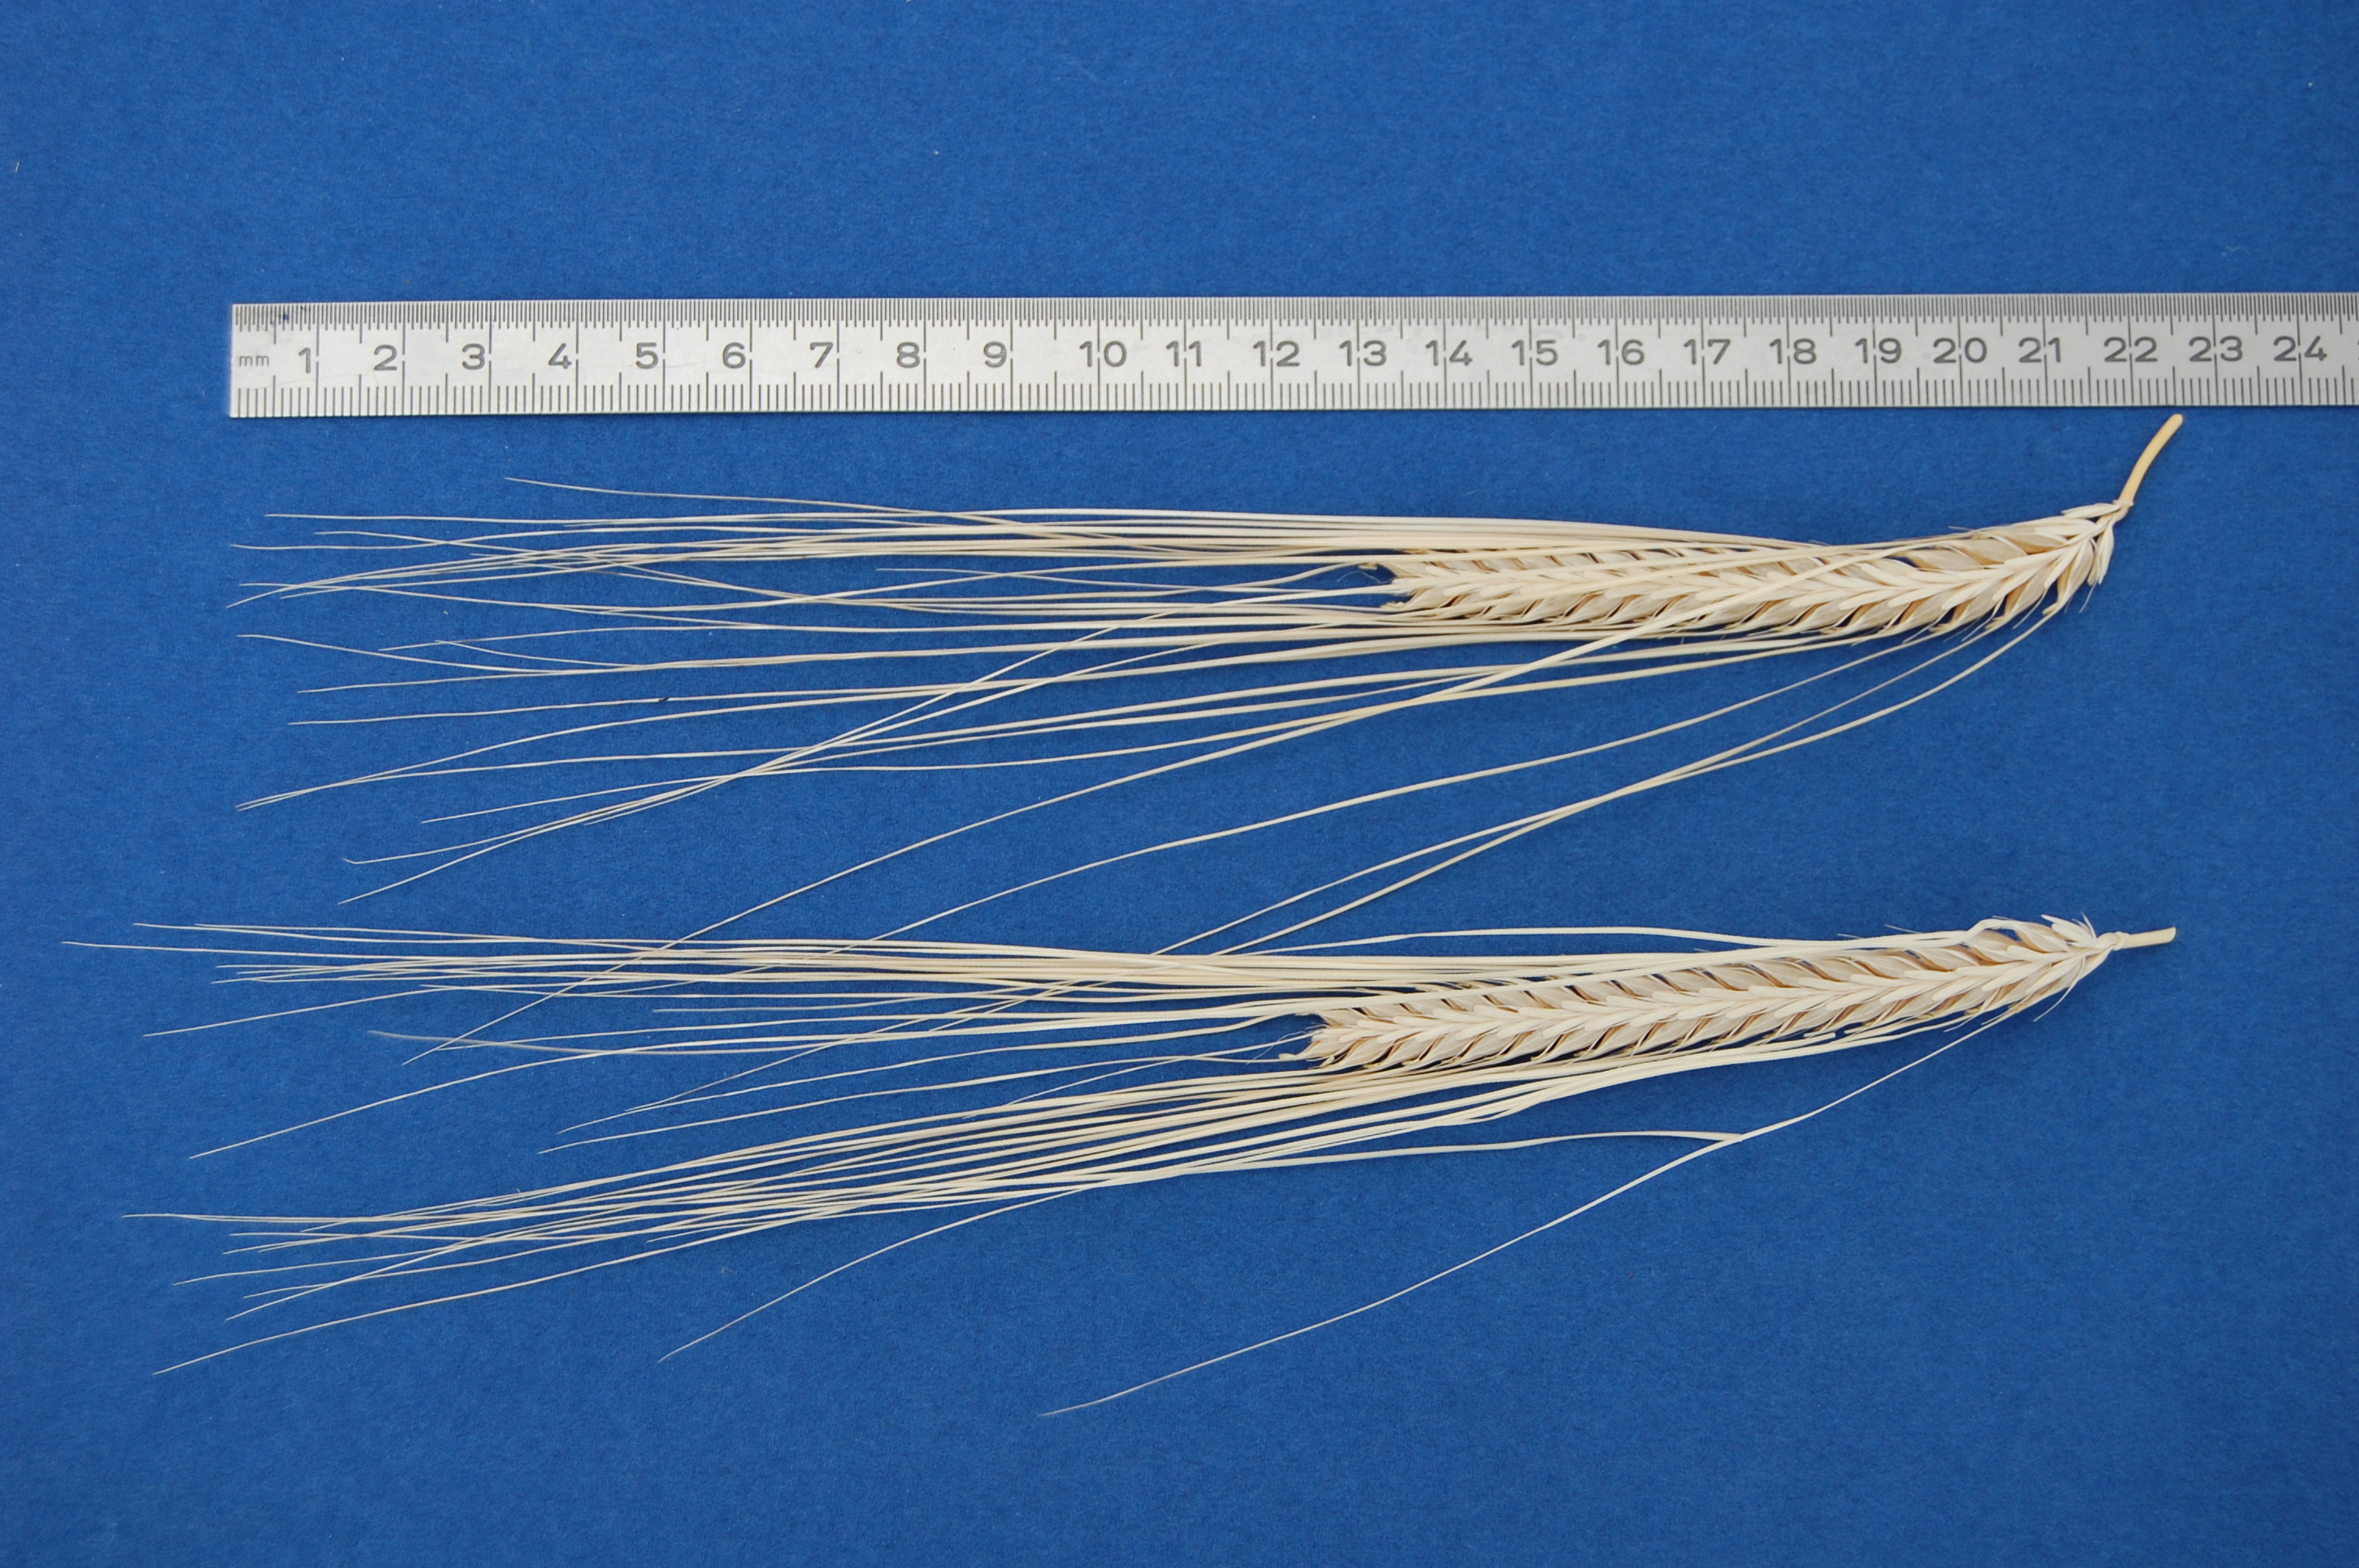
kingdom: Plantae
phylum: Tracheophyta
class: Liliopsida
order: Poales
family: Poaceae
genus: Hordeum
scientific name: Hordeum vulgare
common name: Common barley
